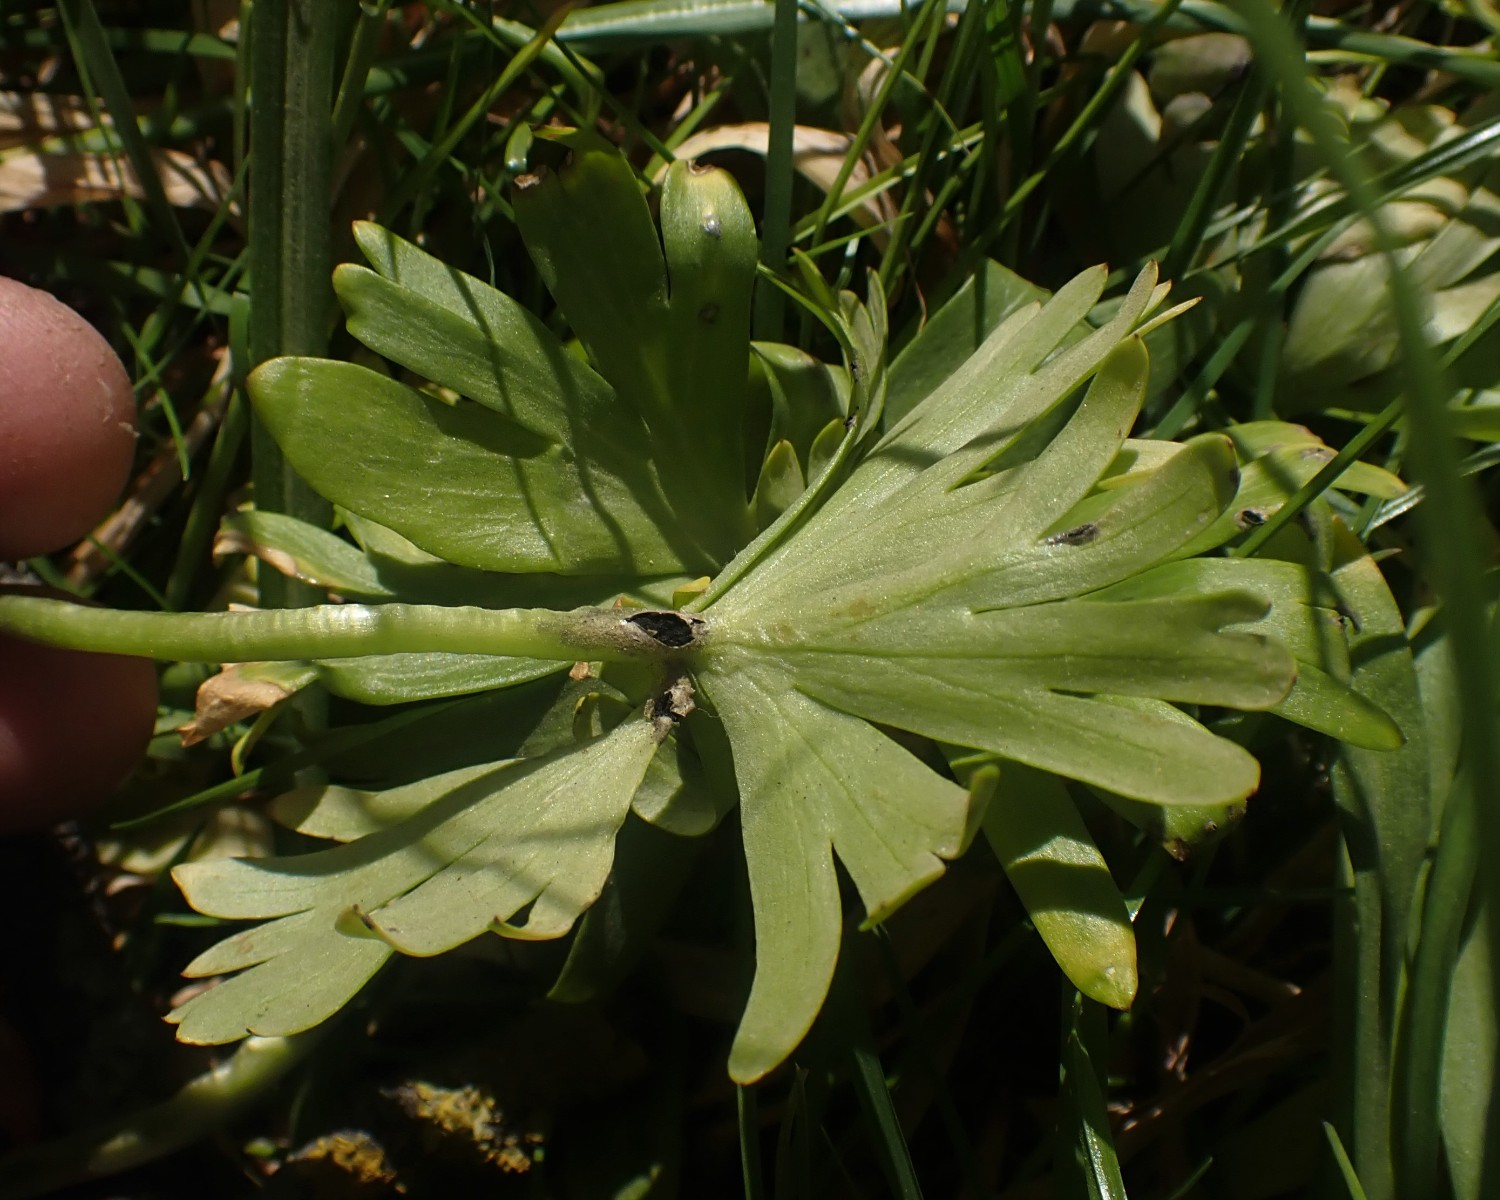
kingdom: Fungi
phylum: Basidiomycota
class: Ustilaginomycetes
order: Urocystidales
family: Urocystidaceae
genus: Urocystis
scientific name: Urocystis eranthidis
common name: erantis-brand
